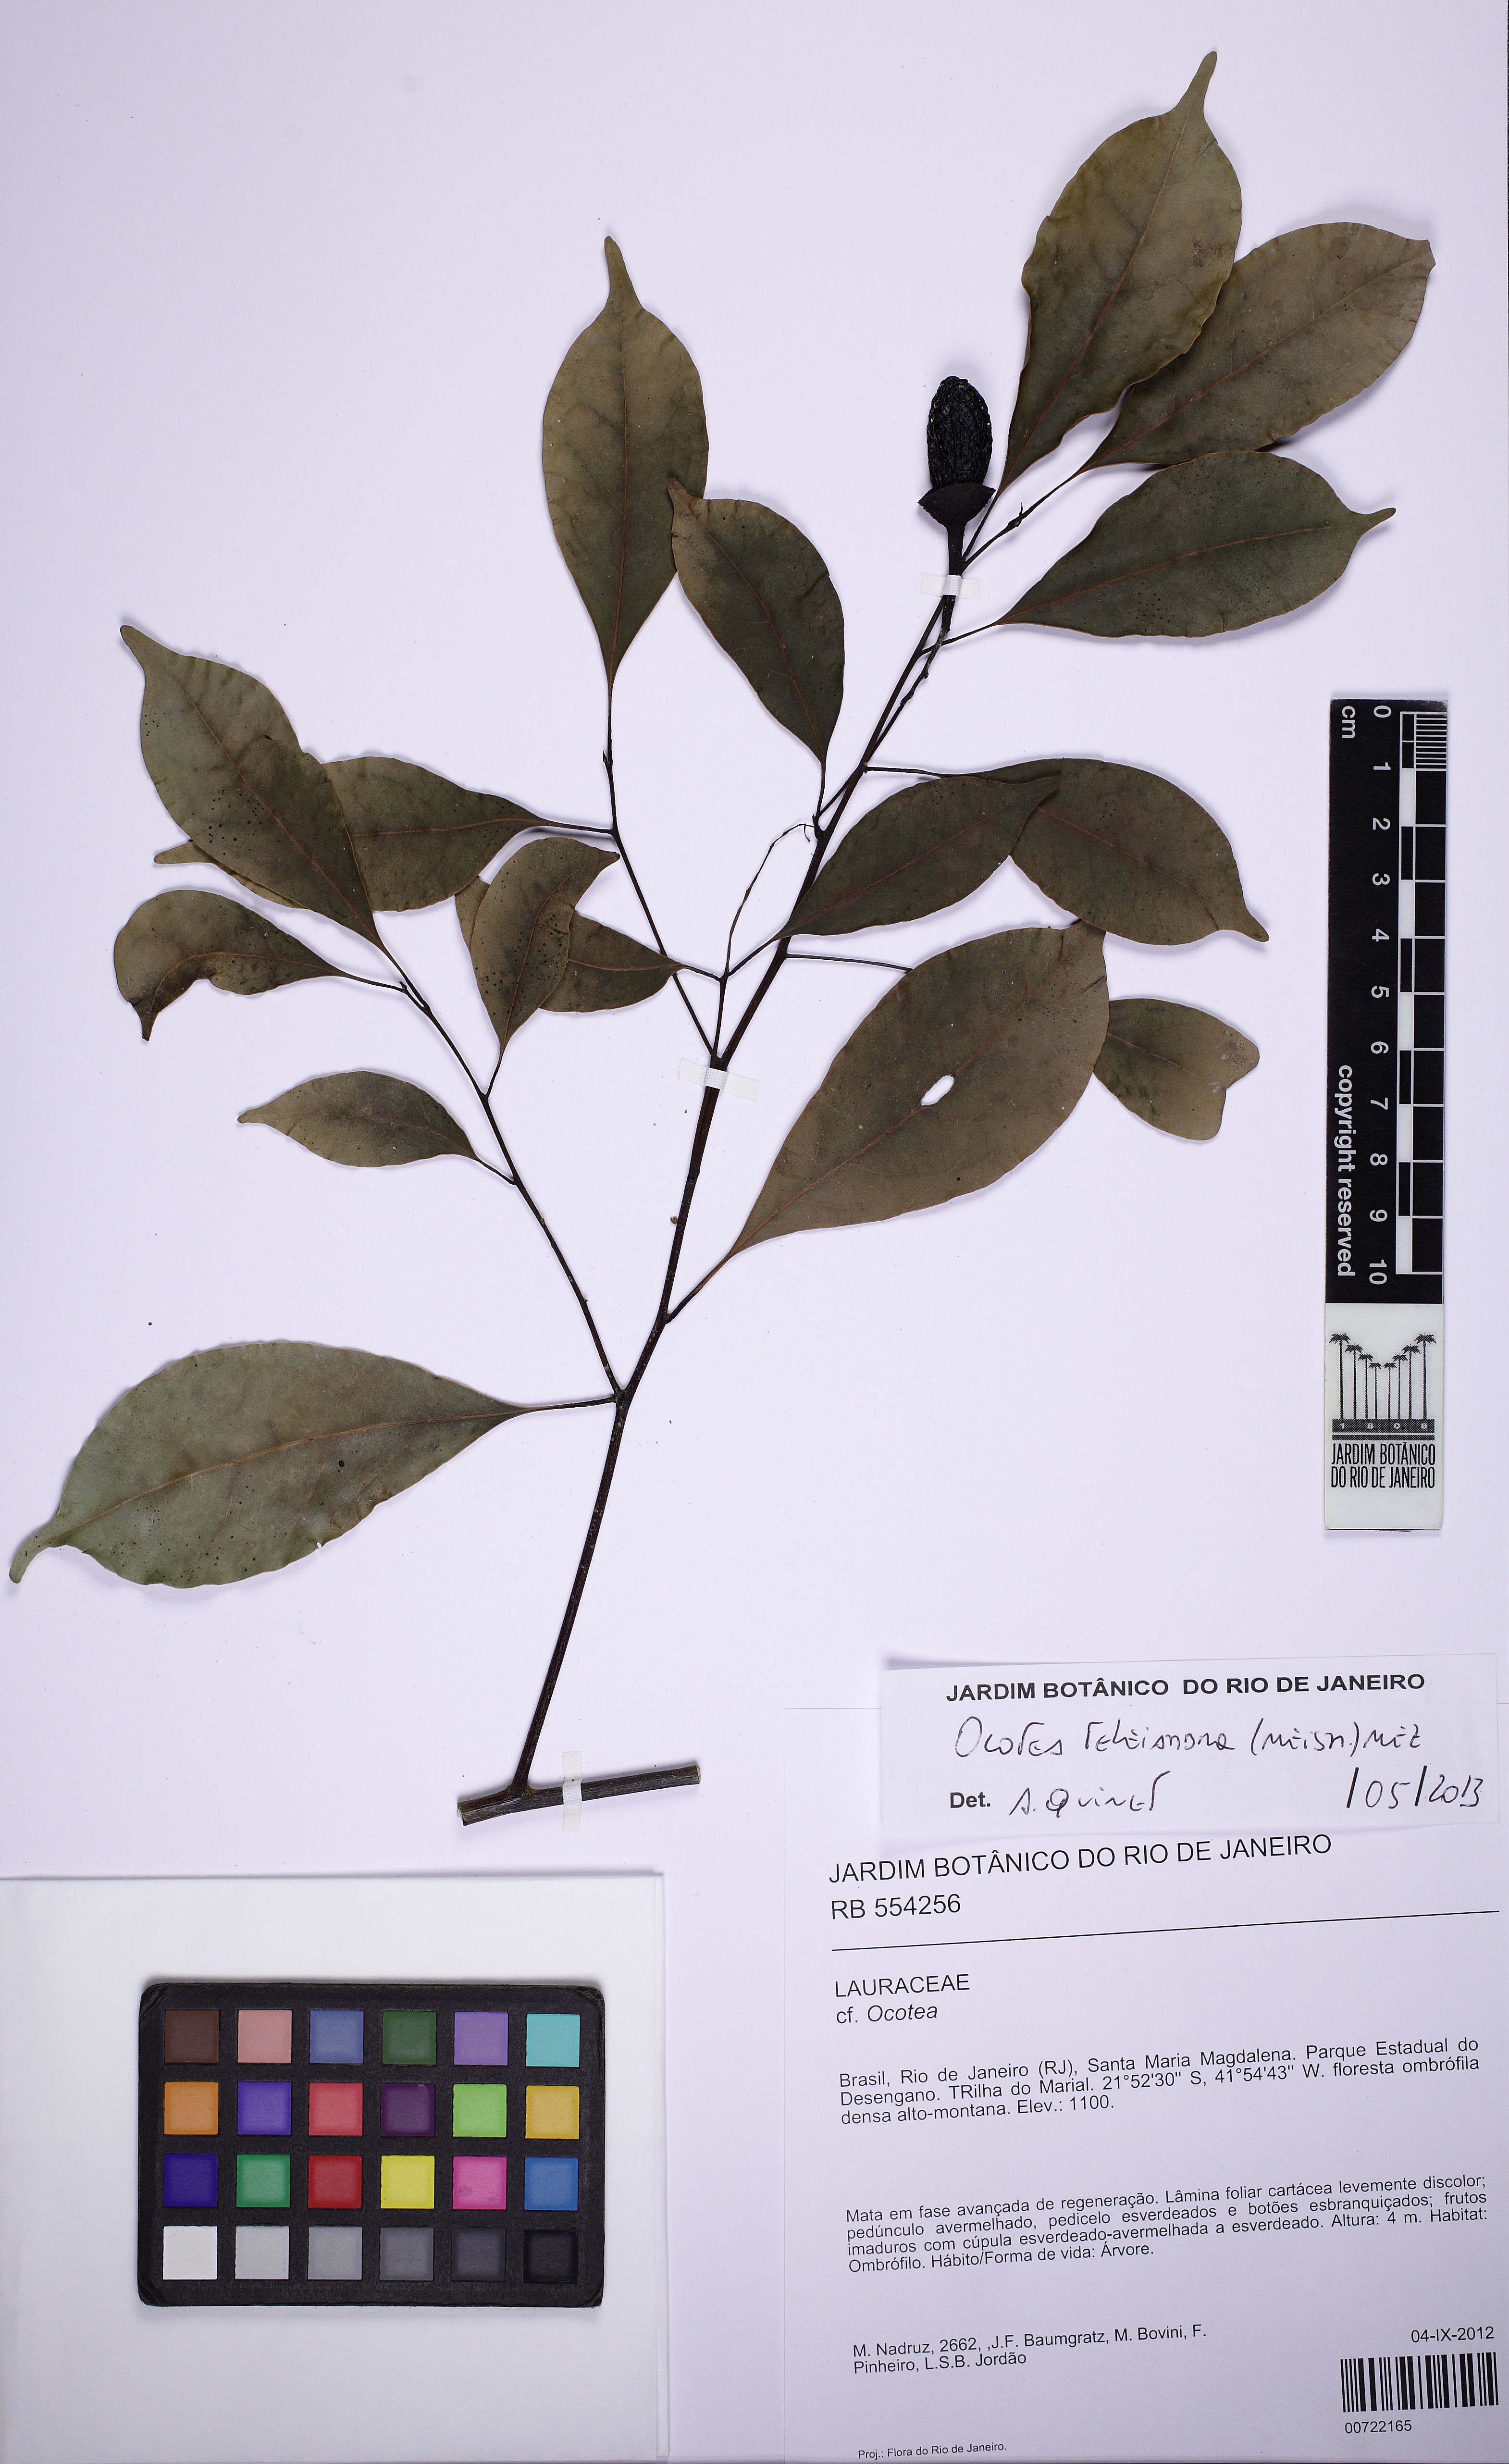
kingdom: Plantae
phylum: Tracheophyta
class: Magnoliopsida
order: Laurales
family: Lauraceae
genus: Ocotea
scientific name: Ocotea teleiandra
